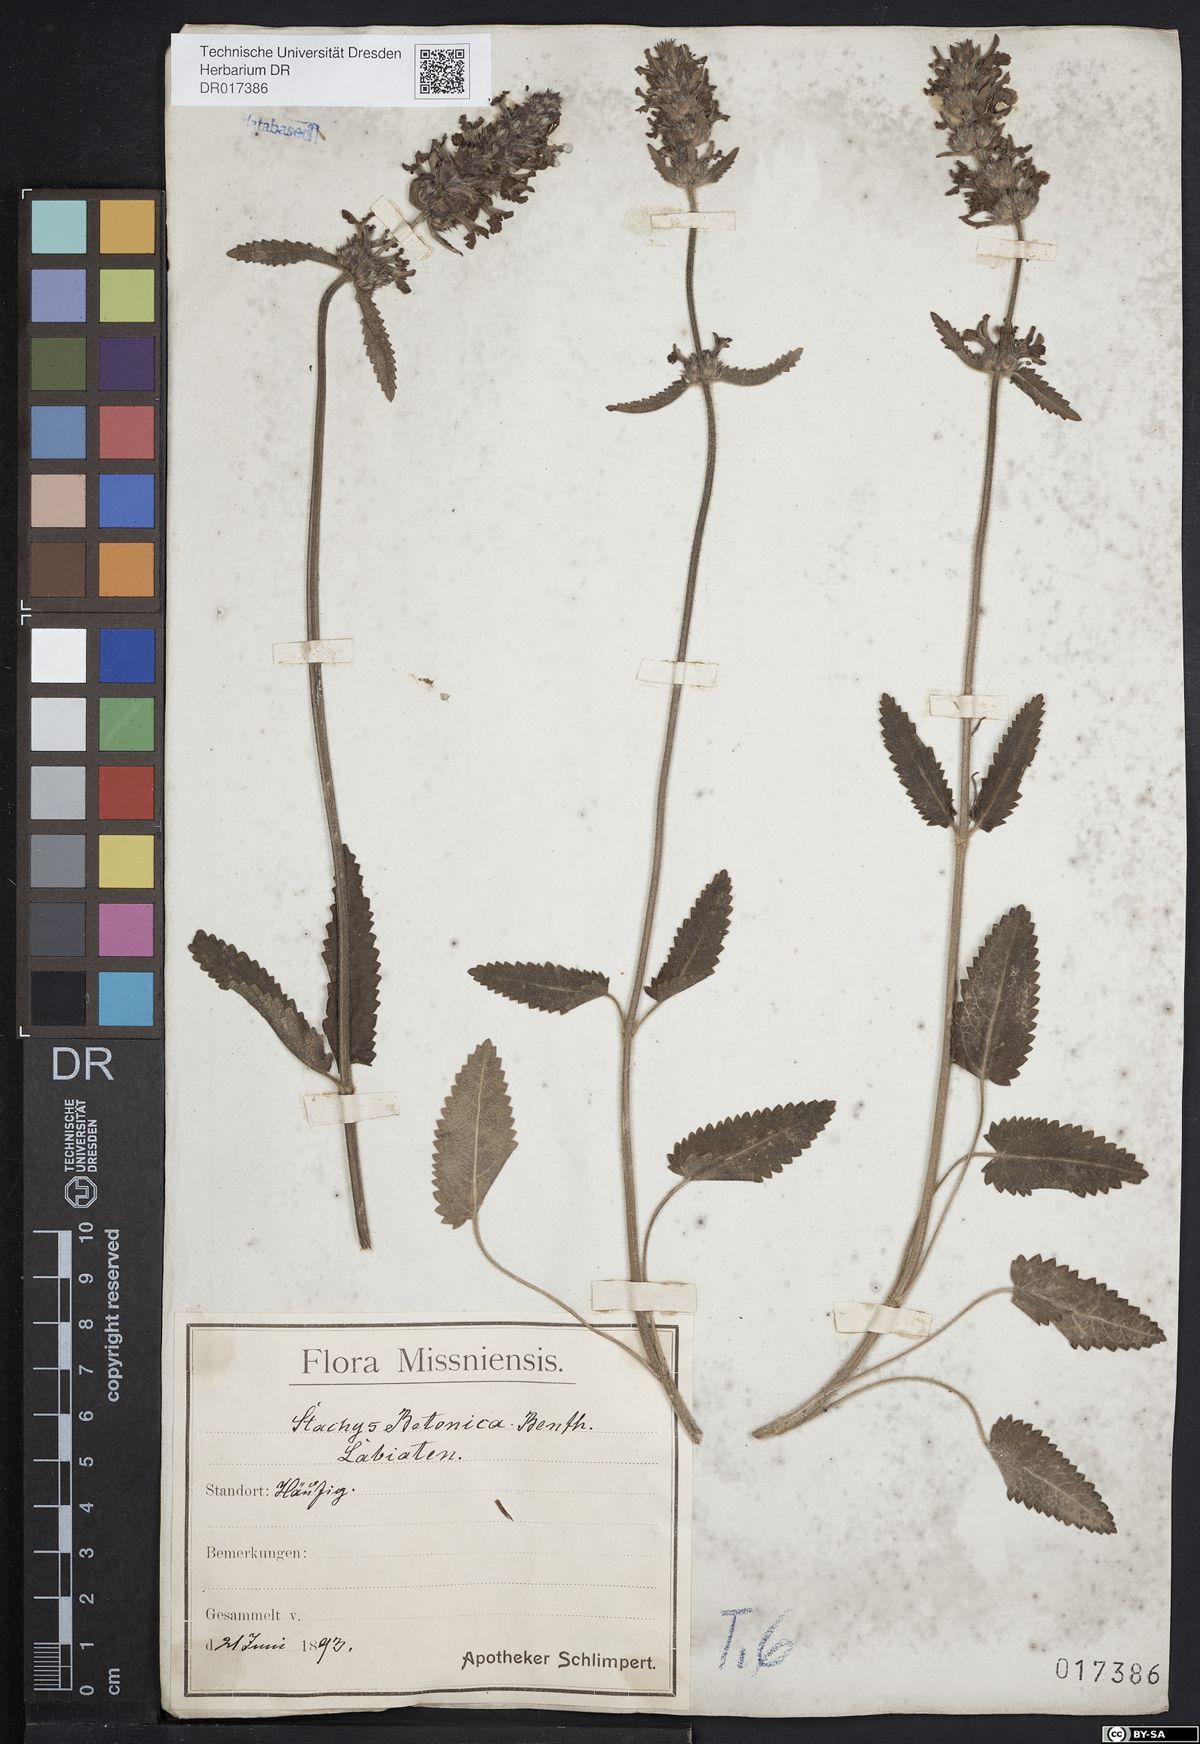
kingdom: Plantae
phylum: Tracheophyta
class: Magnoliopsida
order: Lamiales
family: Lamiaceae
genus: Betonica
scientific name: Betonica officinalis
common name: Bishop's-wort
